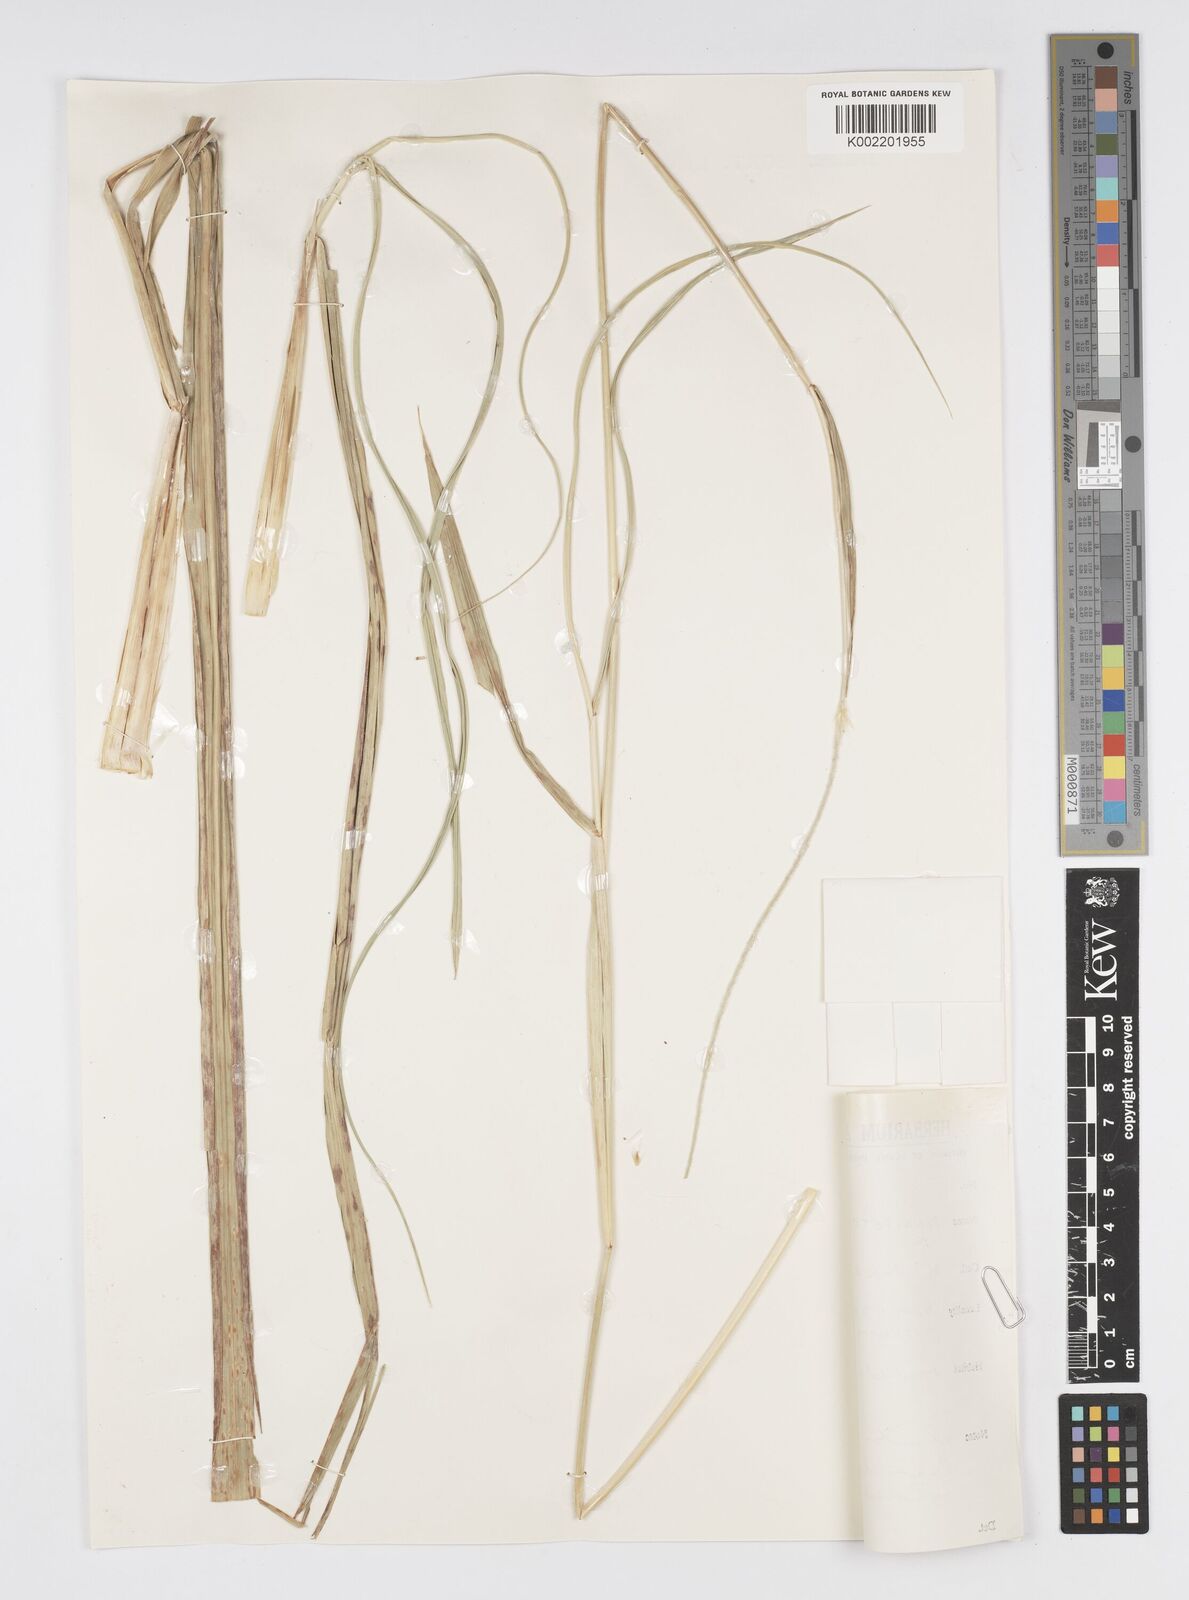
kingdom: Plantae
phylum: Tracheophyta
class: Liliopsida
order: Poales
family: Poaceae
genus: Cenchrus
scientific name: Cenchrus purpureus
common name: Elephant grass
